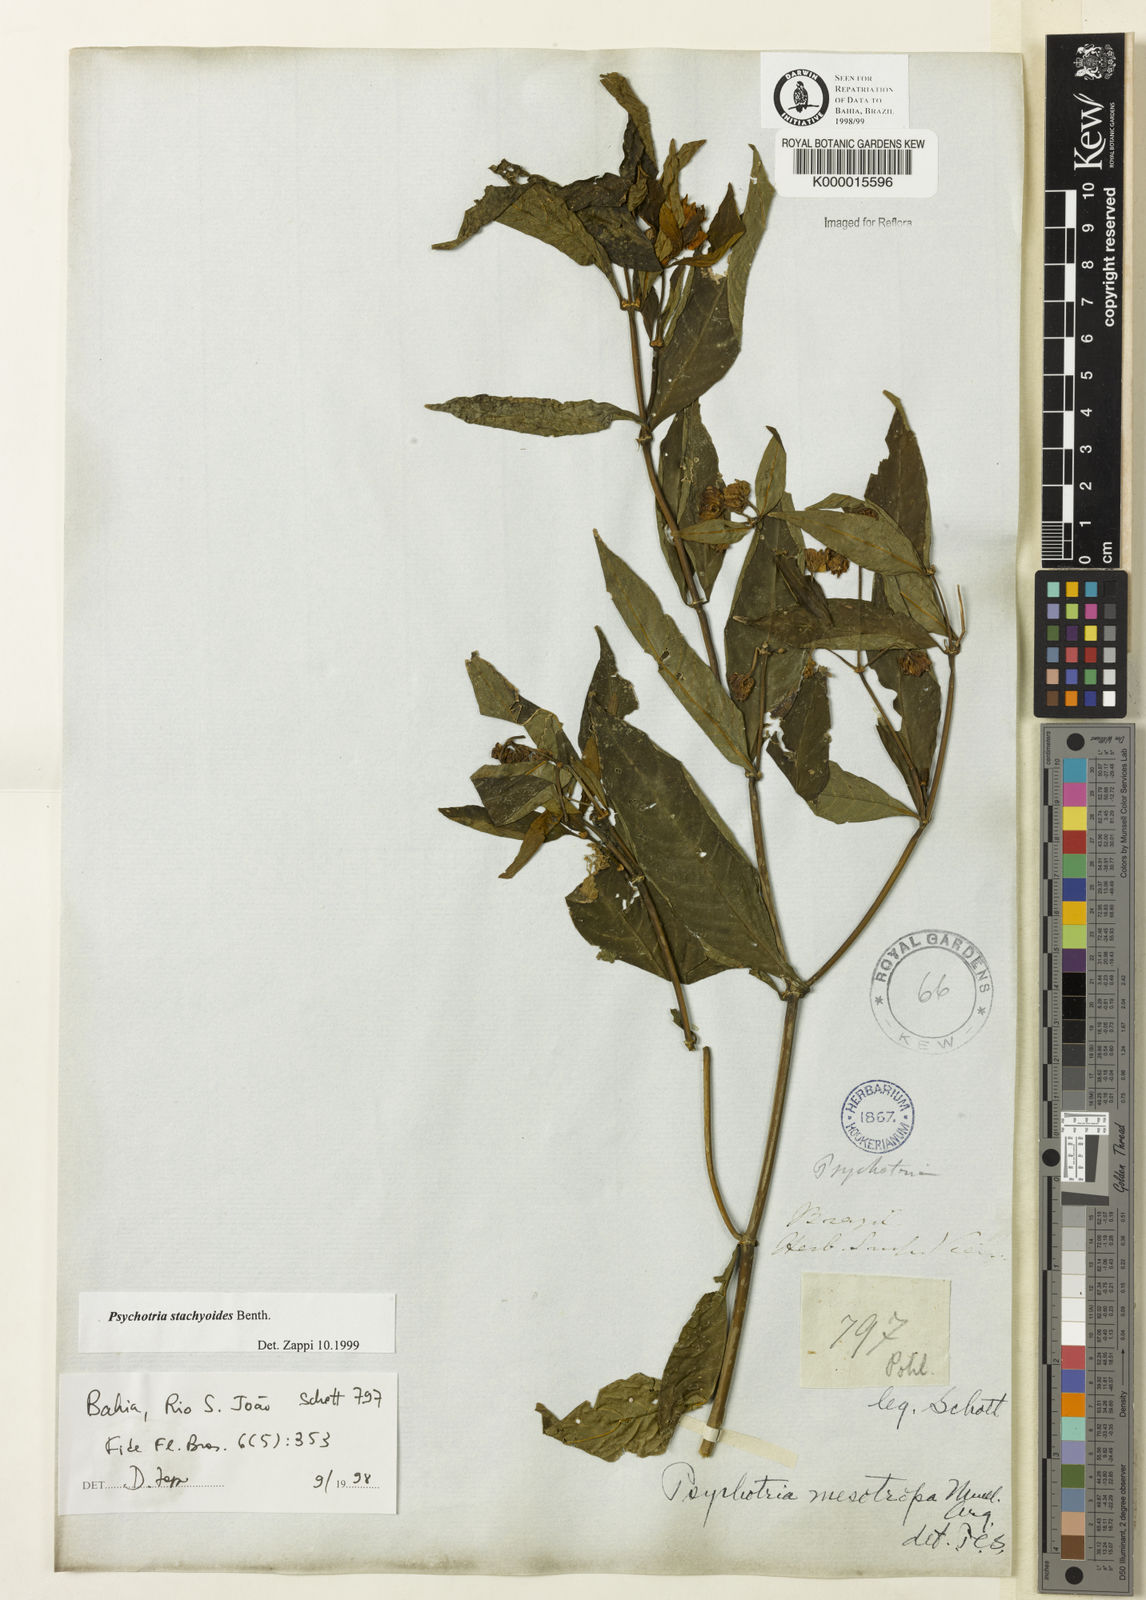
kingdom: Plantae
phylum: Tracheophyta
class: Magnoliopsida
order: Gentianales
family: Rubiaceae
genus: Psychotria
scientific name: Psychotria stachyoides
